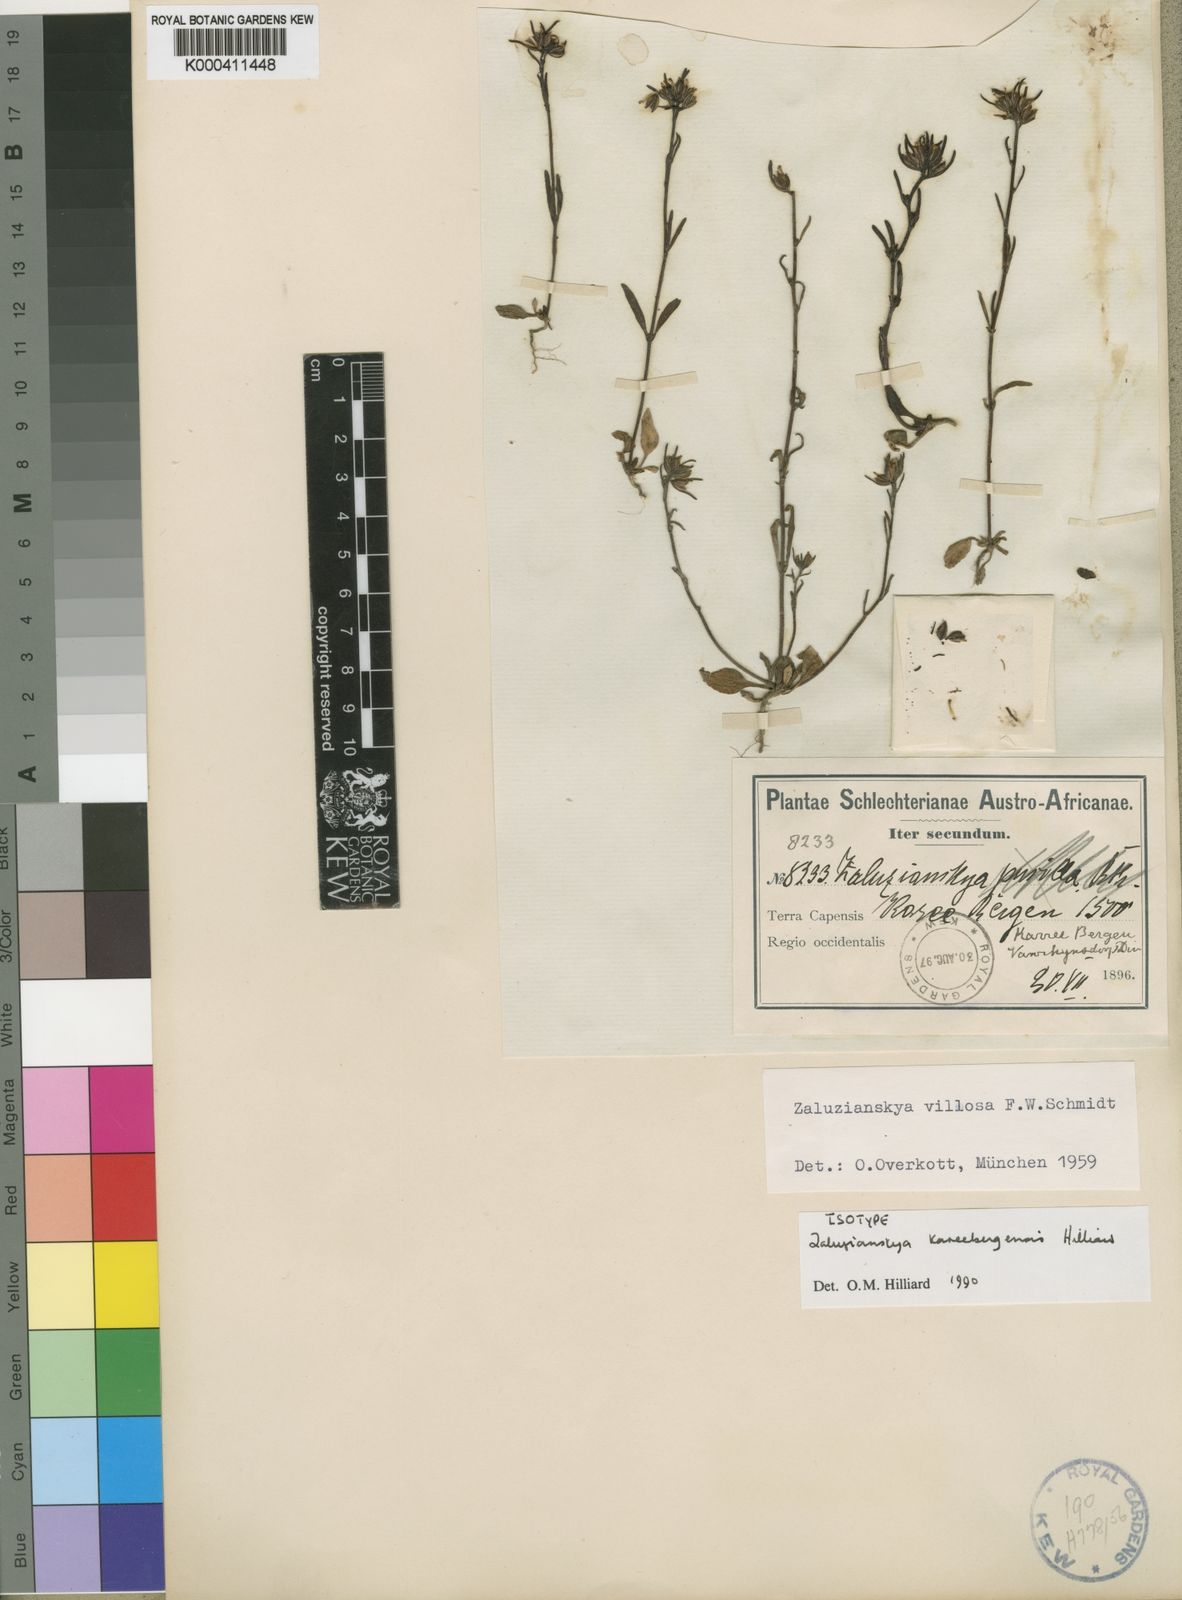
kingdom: Plantae
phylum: Tracheophyta
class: Magnoliopsida
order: Lamiales
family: Scrophulariaceae
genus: Zaluzianskya
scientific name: Zaluzianskya kareebergensis
